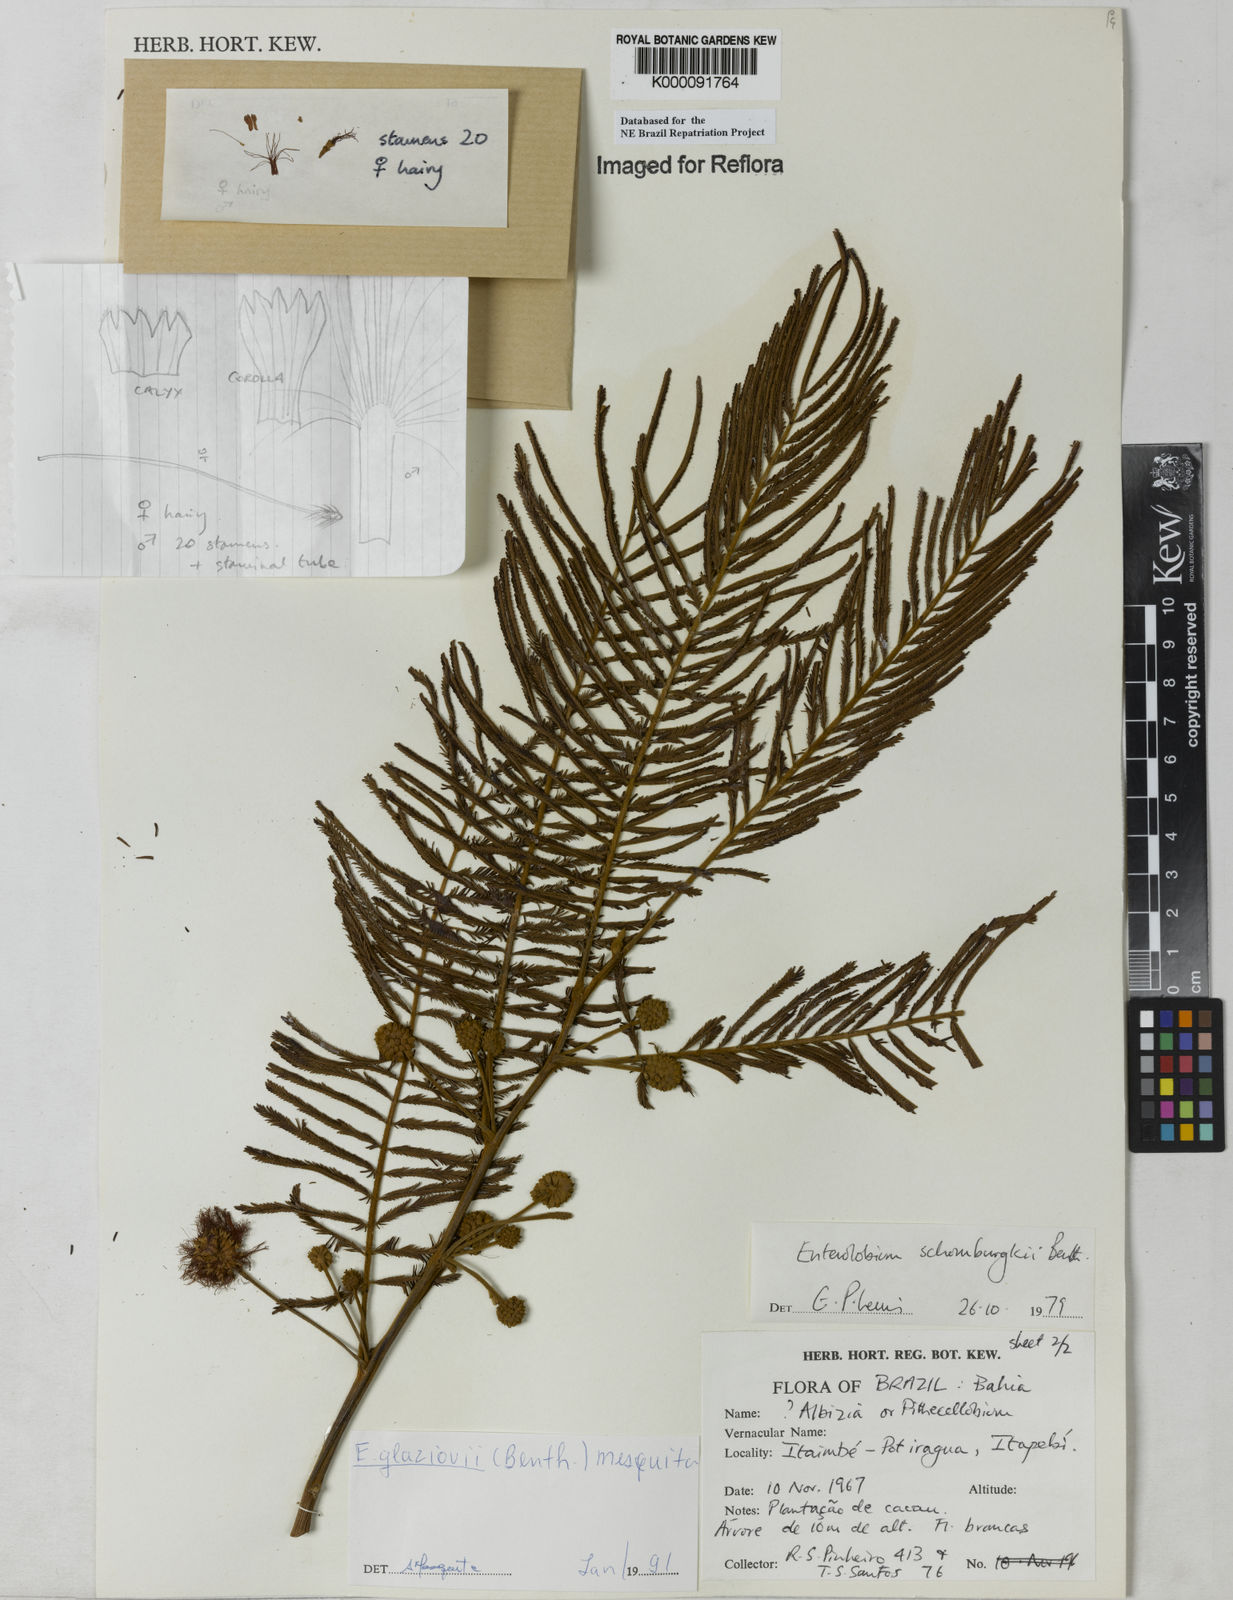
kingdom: Plantae
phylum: Tracheophyta
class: Magnoliopsida
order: Fabales
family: Fabaceae
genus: Enterolobium
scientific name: Enterolobium glaziovii
